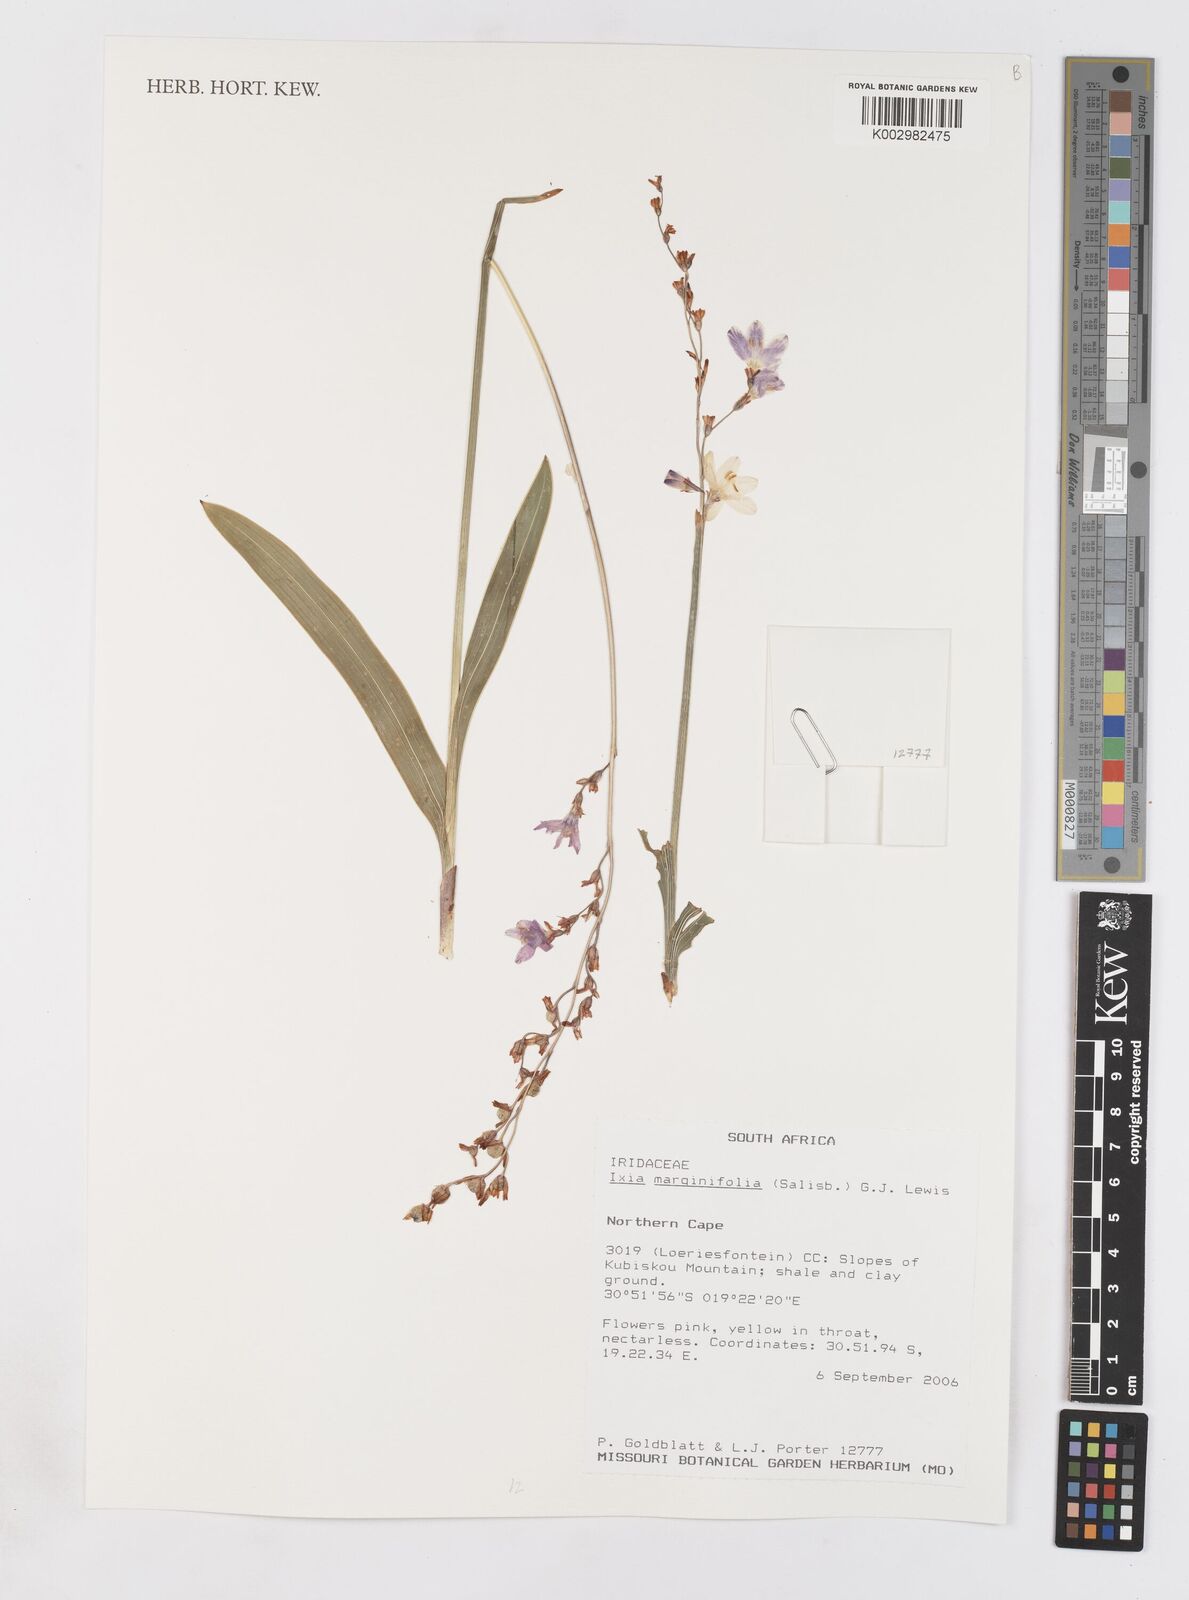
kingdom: Plantae
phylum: Tracheophyta
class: Liliopsida
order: Asparagales
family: Iridaceae
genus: Ixia
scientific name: Ixia marginifolia
